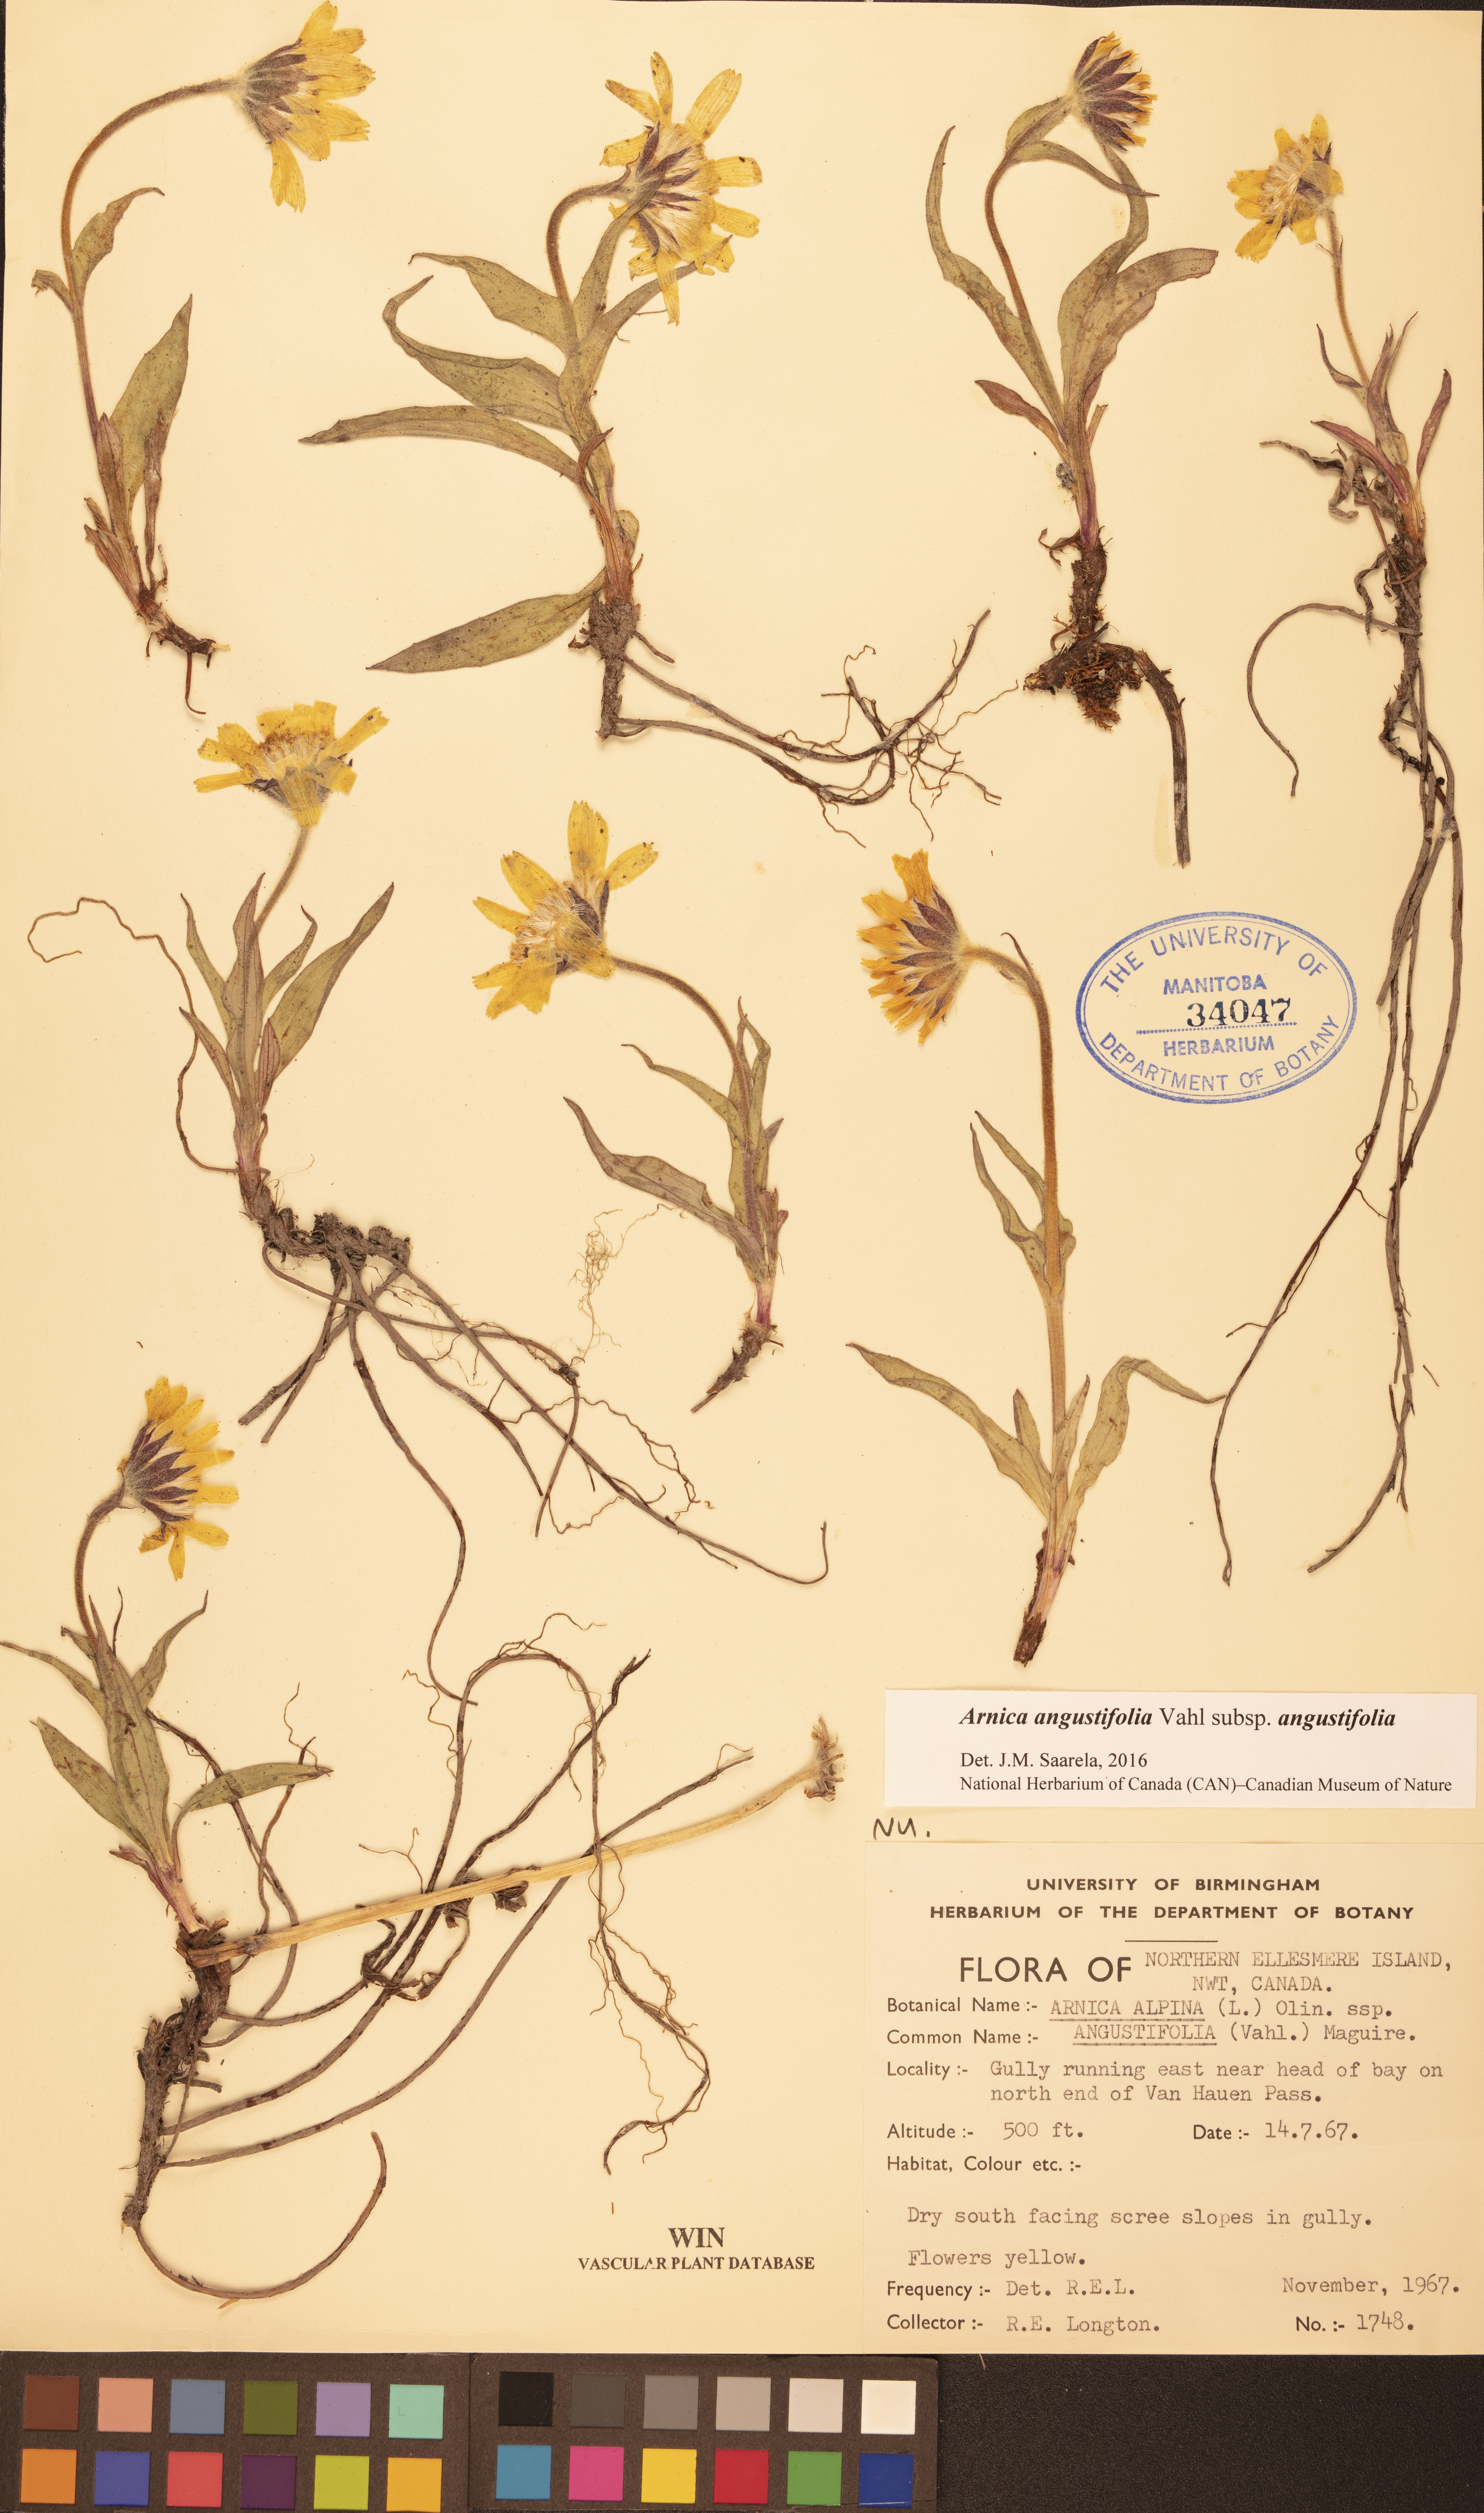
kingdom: Plantae
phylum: Tracheophyta
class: Magnoliopsida
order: Asterales
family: Asteraceae
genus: Arnica
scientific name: Arnica angustifolia
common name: Arctic arnica
